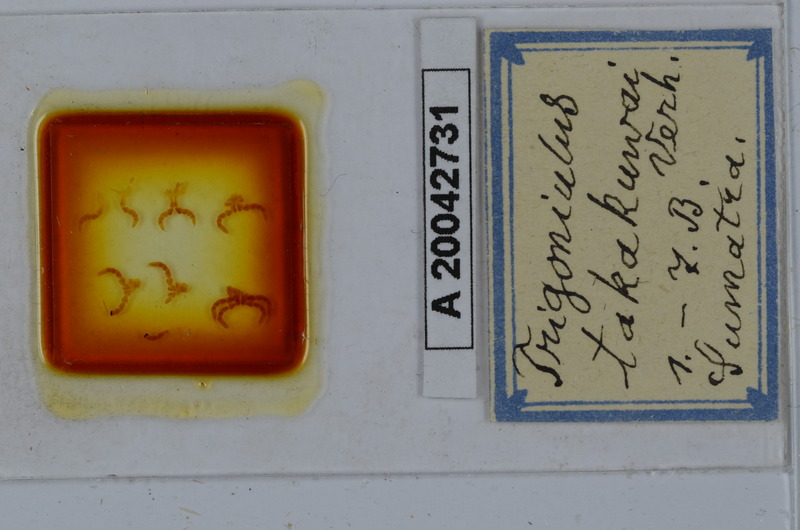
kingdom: Animalia
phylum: Arthropoda
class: Diplopoda
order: Spirobolida
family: Pachybolidae
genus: Trigoniulus
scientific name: Trigoniulus corallinus
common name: Millipede
